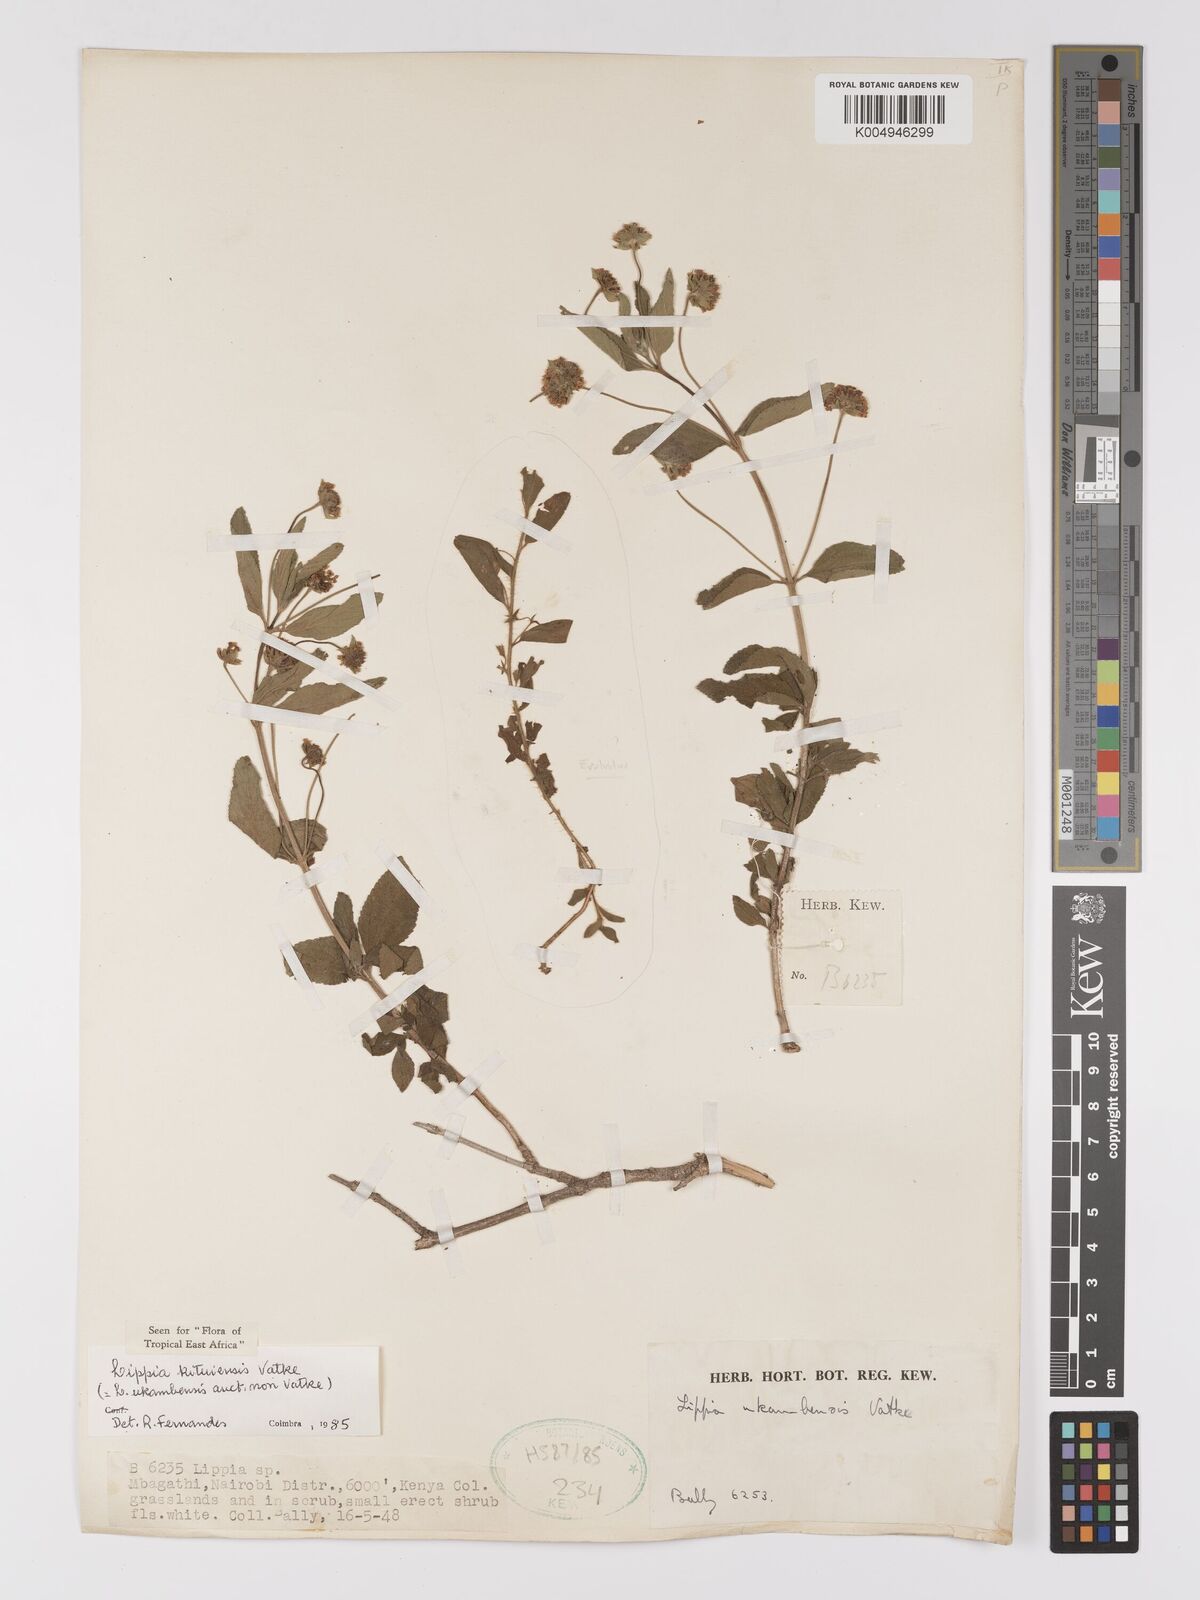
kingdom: Plantae
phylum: Tracheophyta
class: Magnoliopsida
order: Lamiales
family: Verbenaceae
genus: Lippia
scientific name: Lippia kituiensis
